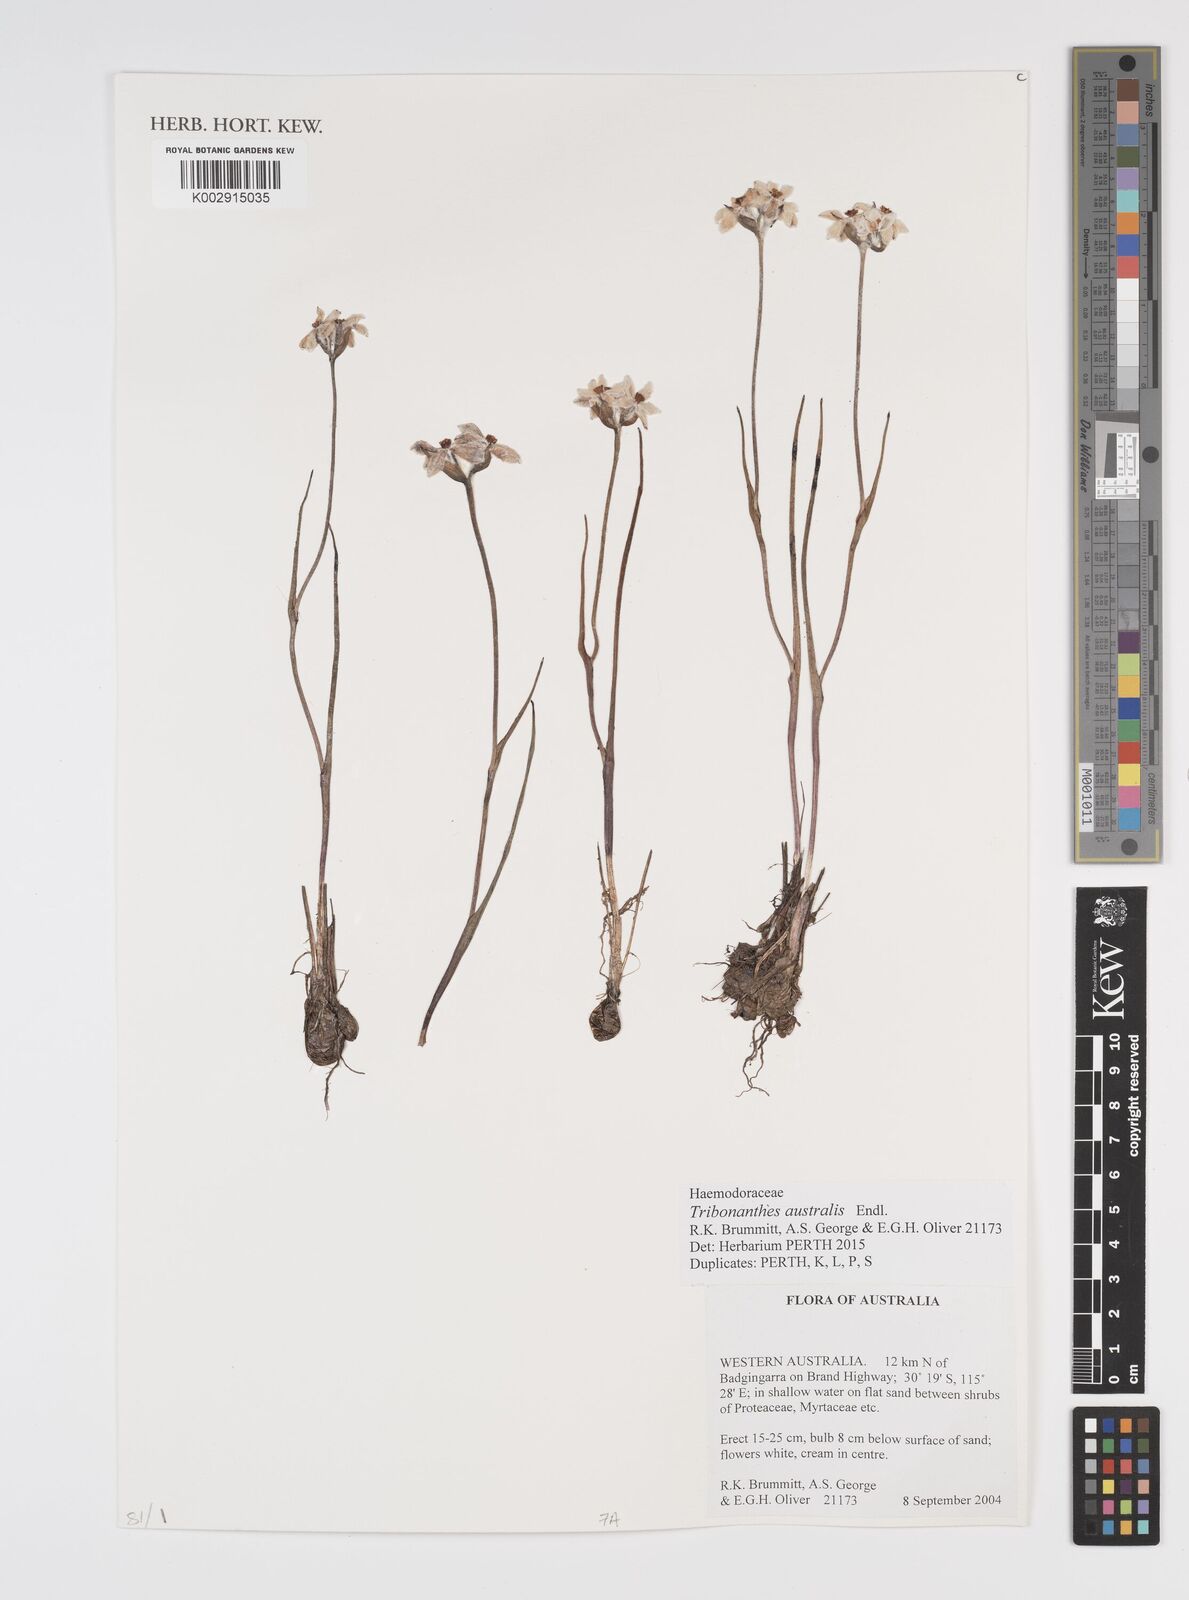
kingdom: Plantae
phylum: Tracheophyta
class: Liliopsida
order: Commelinales
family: Haemodoraceae
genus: Tribonanthes
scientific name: Tribonanthes australis
